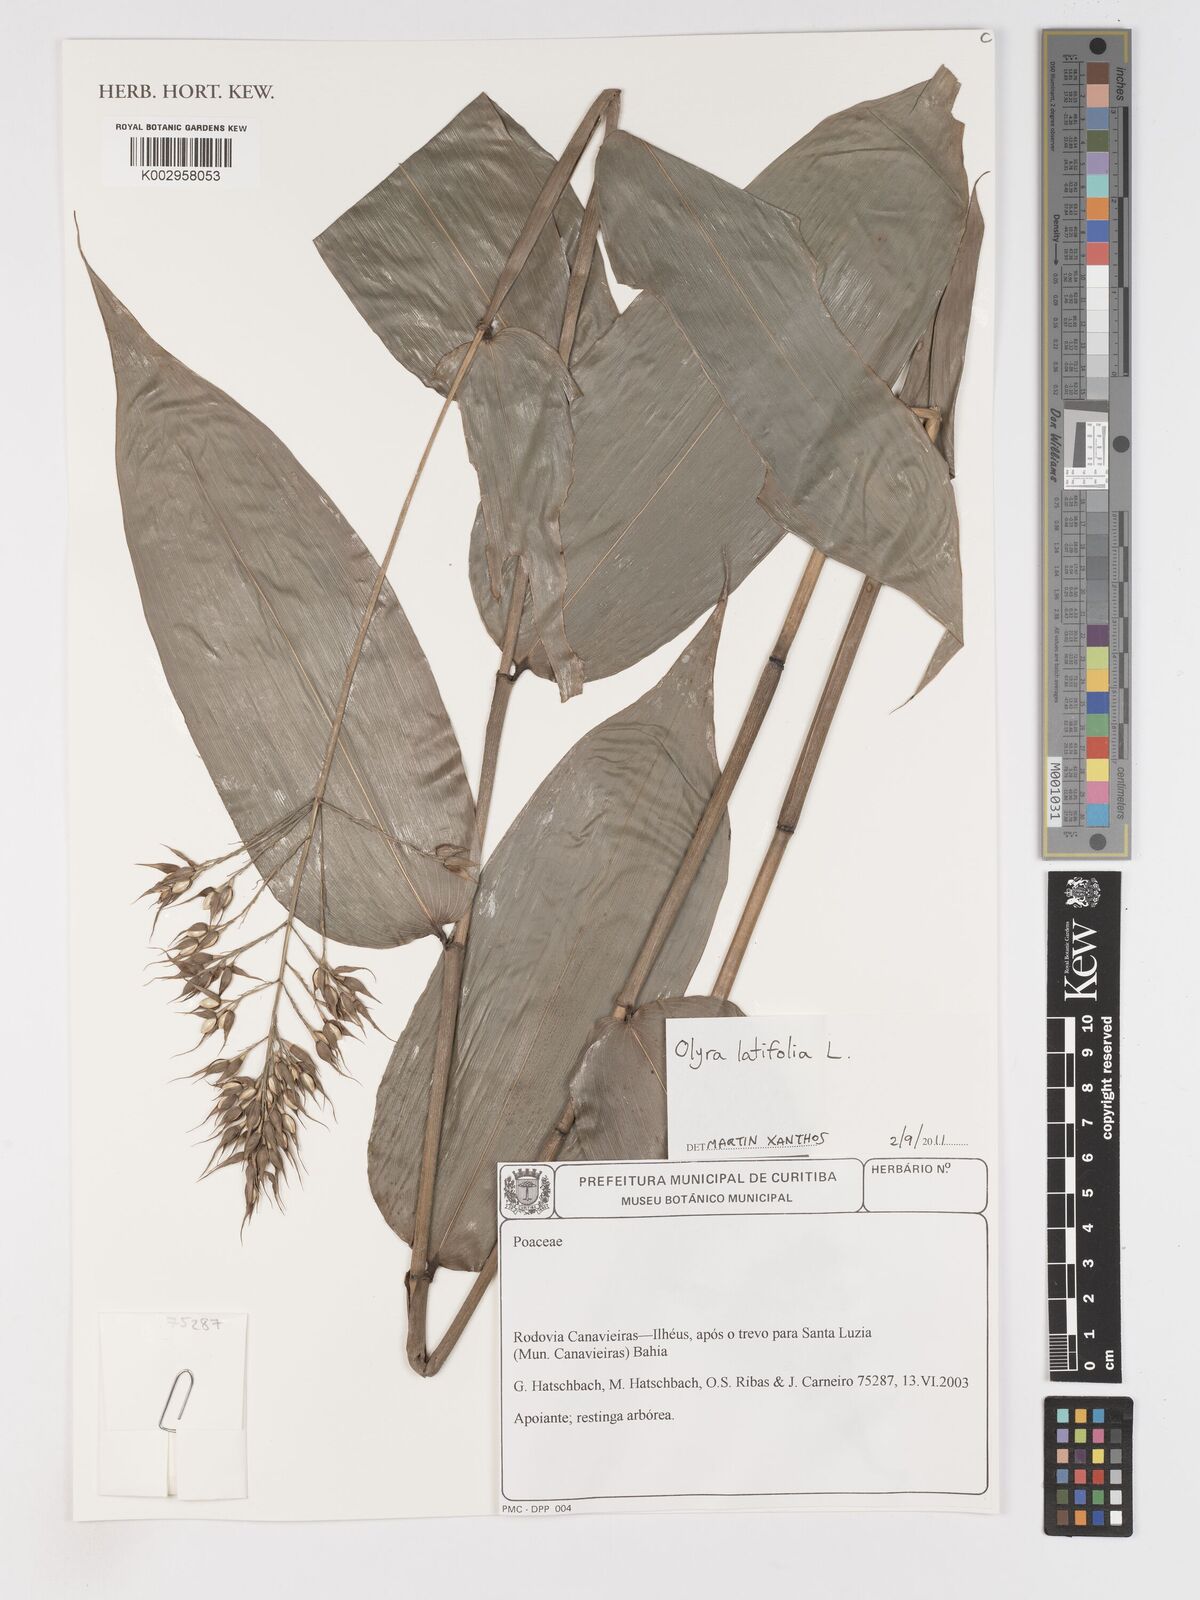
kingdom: Plantae
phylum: Tracheophyta
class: Liliopsida
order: Poales
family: Poaceae
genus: Olyra
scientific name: Olyra latifolia
